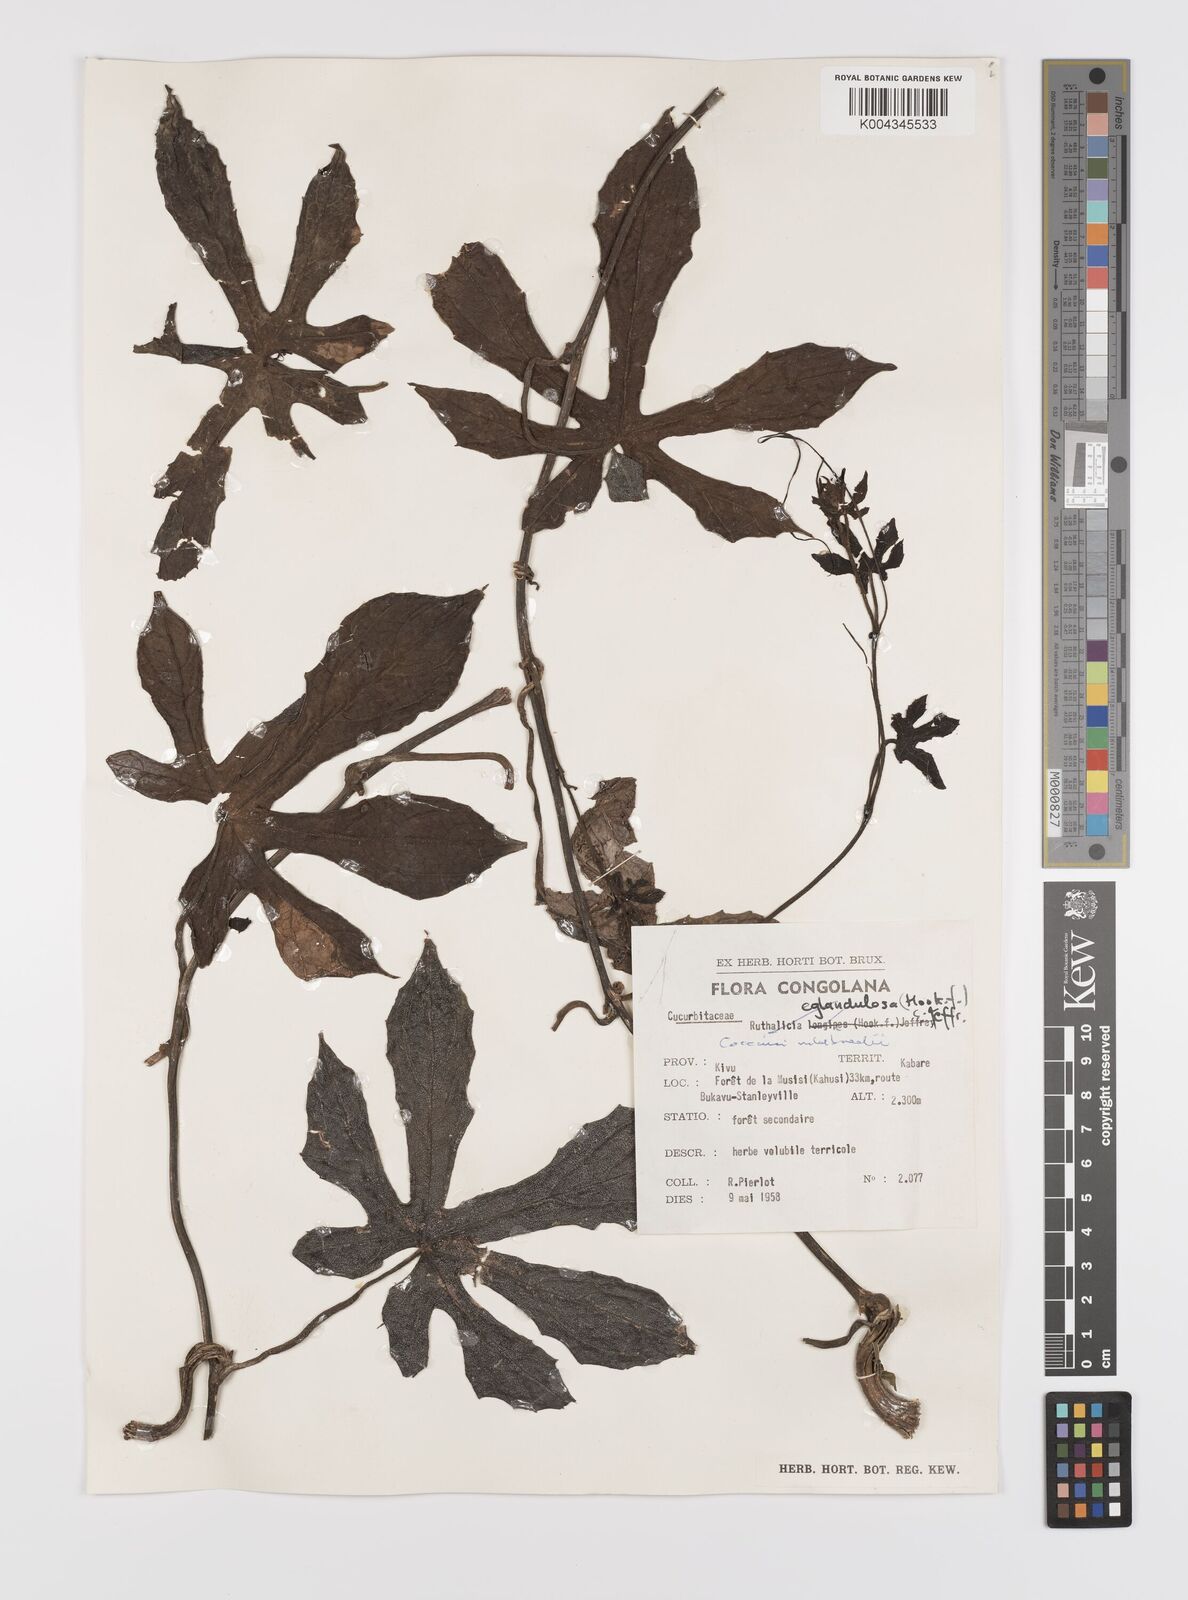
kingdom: Plantae
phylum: Tracheophyta
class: Magnoliopsida
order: Cucurbitales
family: Cucurbitaceae
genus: Coccinia
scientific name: Coccinia mildbraedii
